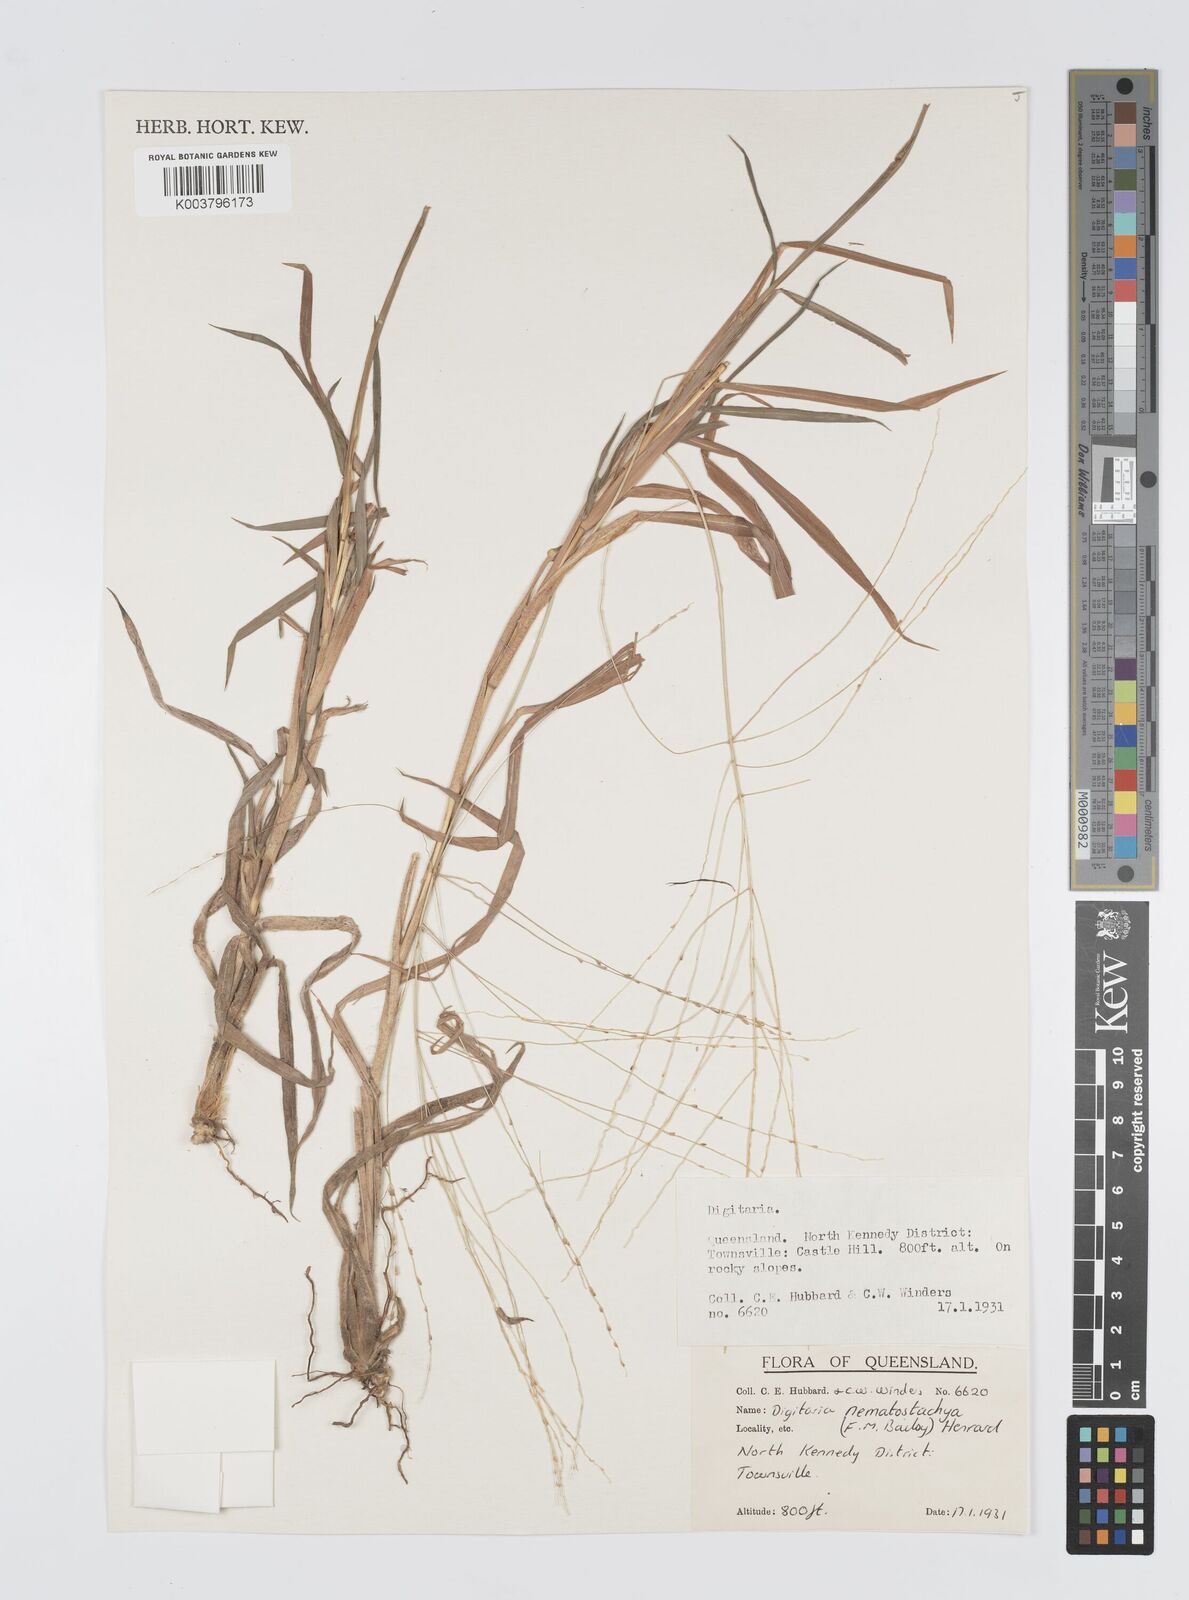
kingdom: Plantae
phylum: Tracheophyta
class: Liliopsida
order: Poales
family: Poaceae
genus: Digitaria
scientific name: Digitaria nematostachya
